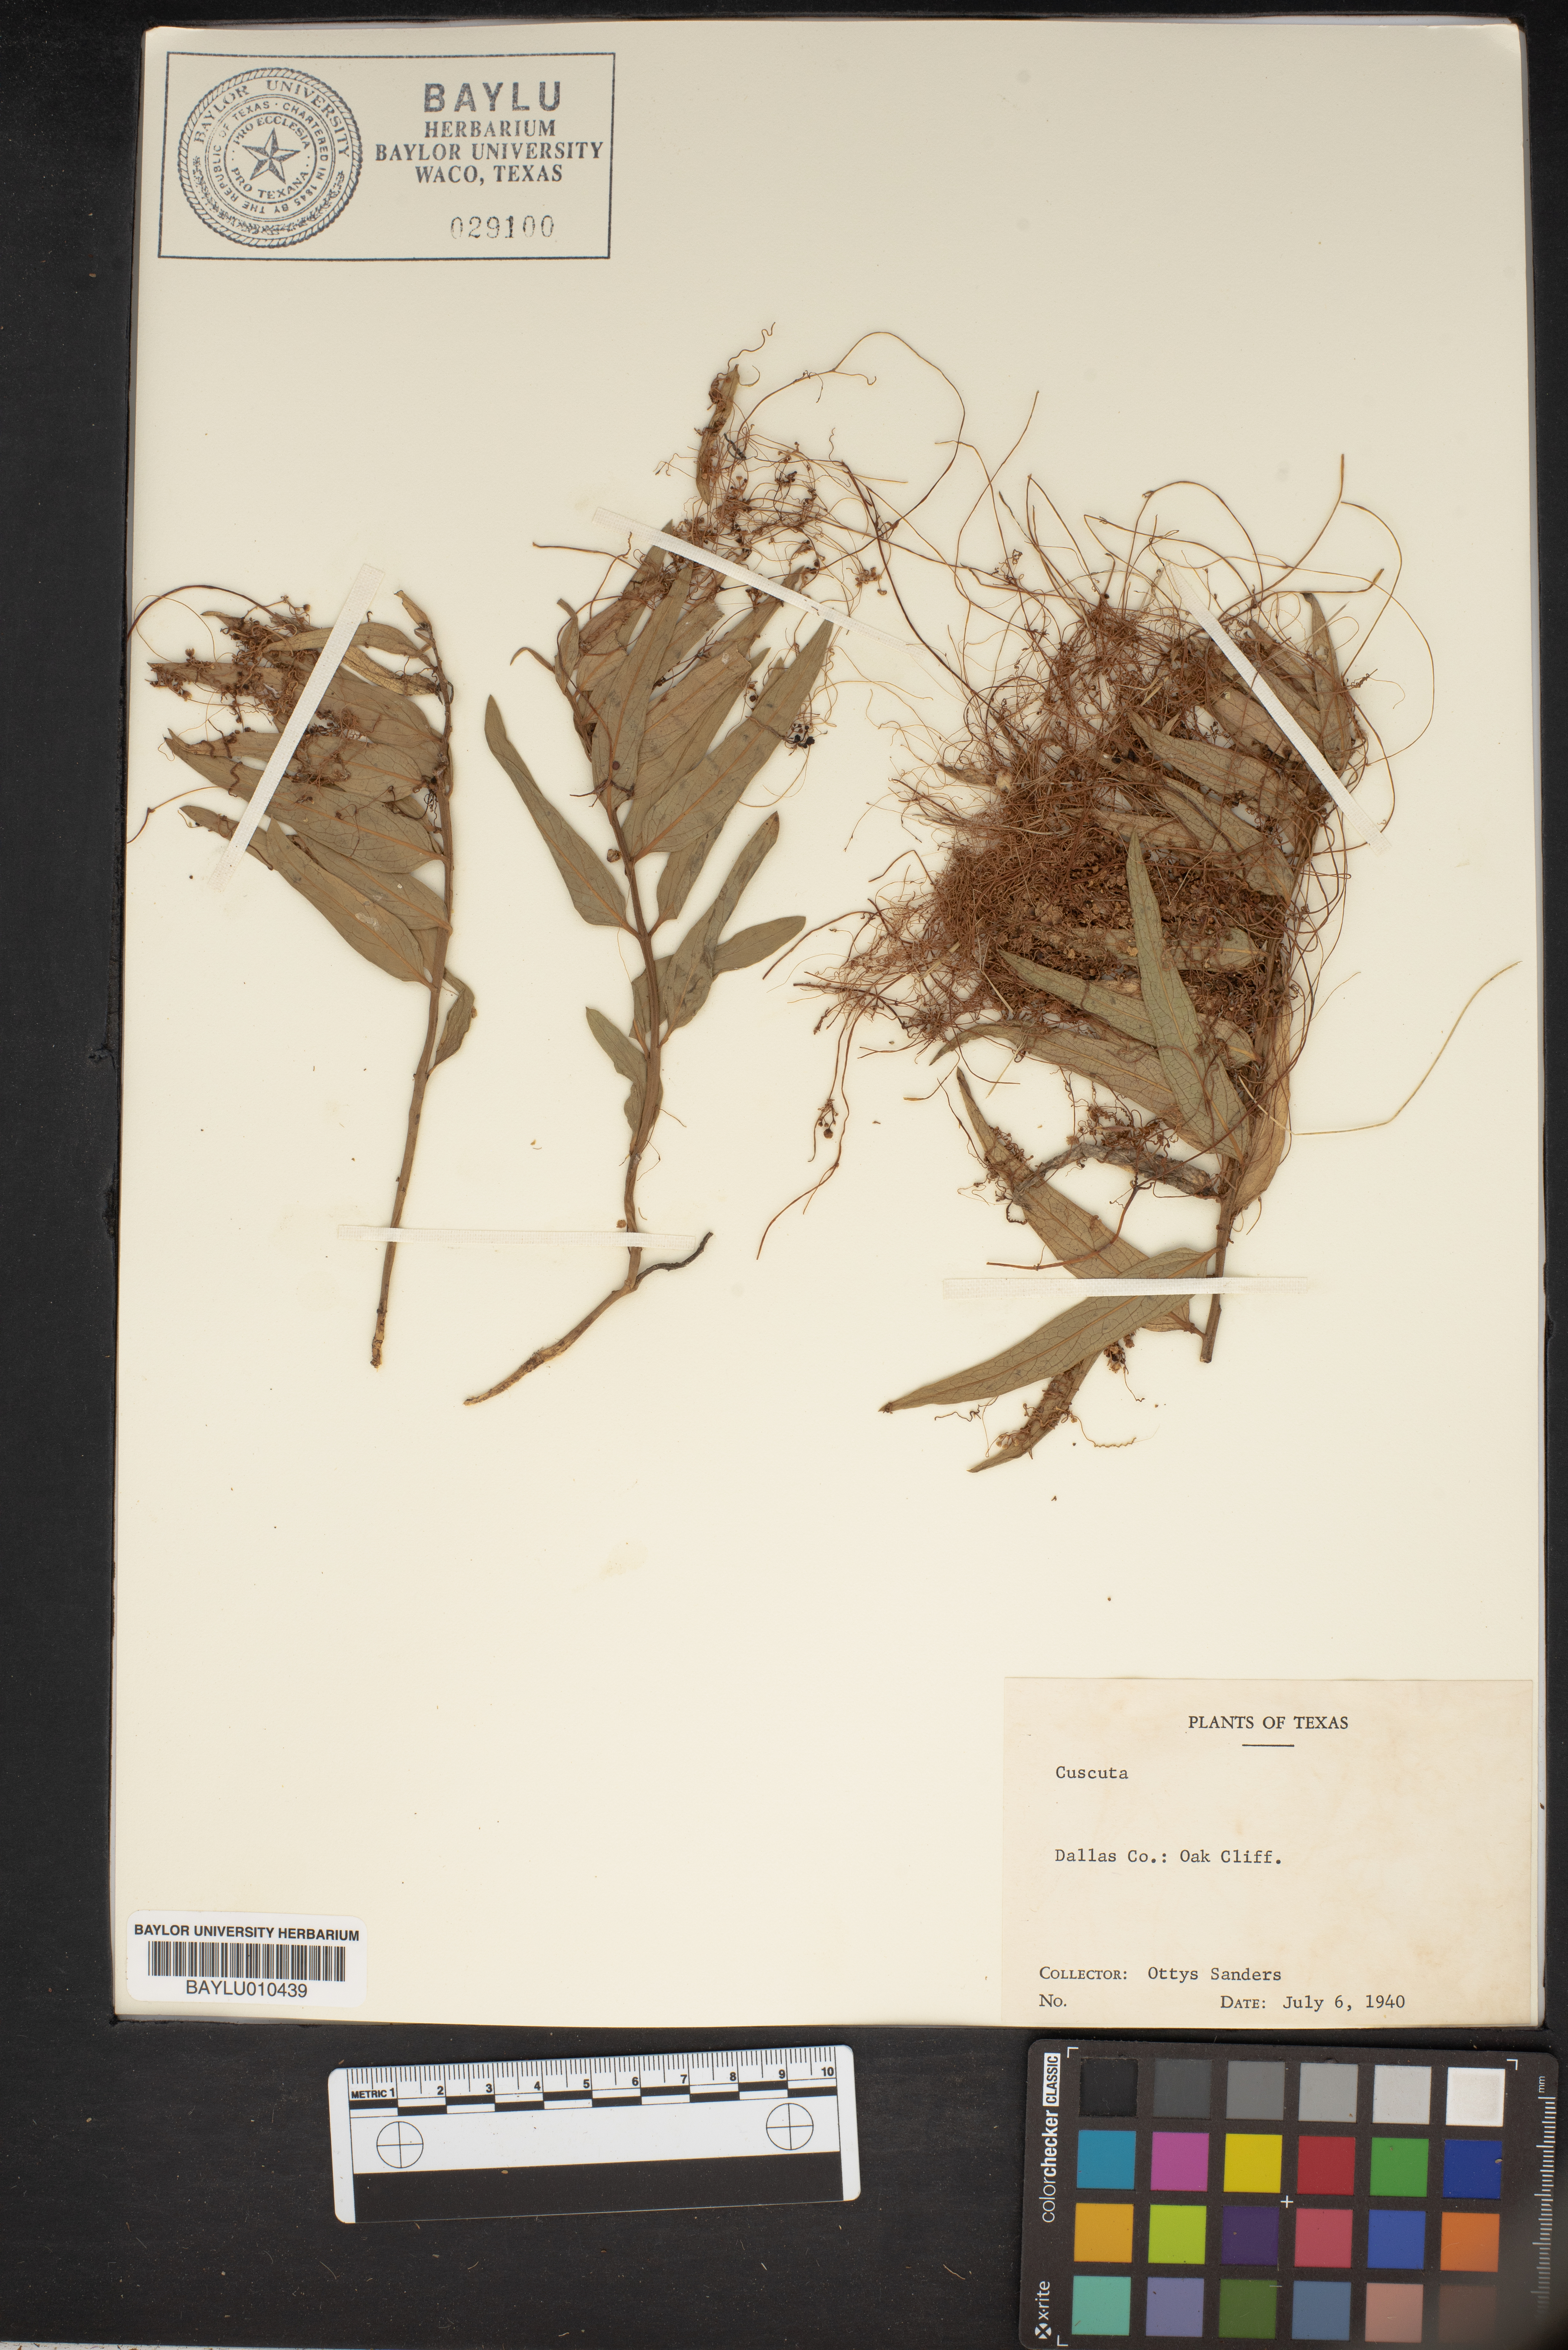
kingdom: Plantae
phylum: Tracheophyta
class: Magnoliopsida
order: Solanales
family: Convolvulaceae
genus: Cuscuta
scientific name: Cuscuta
